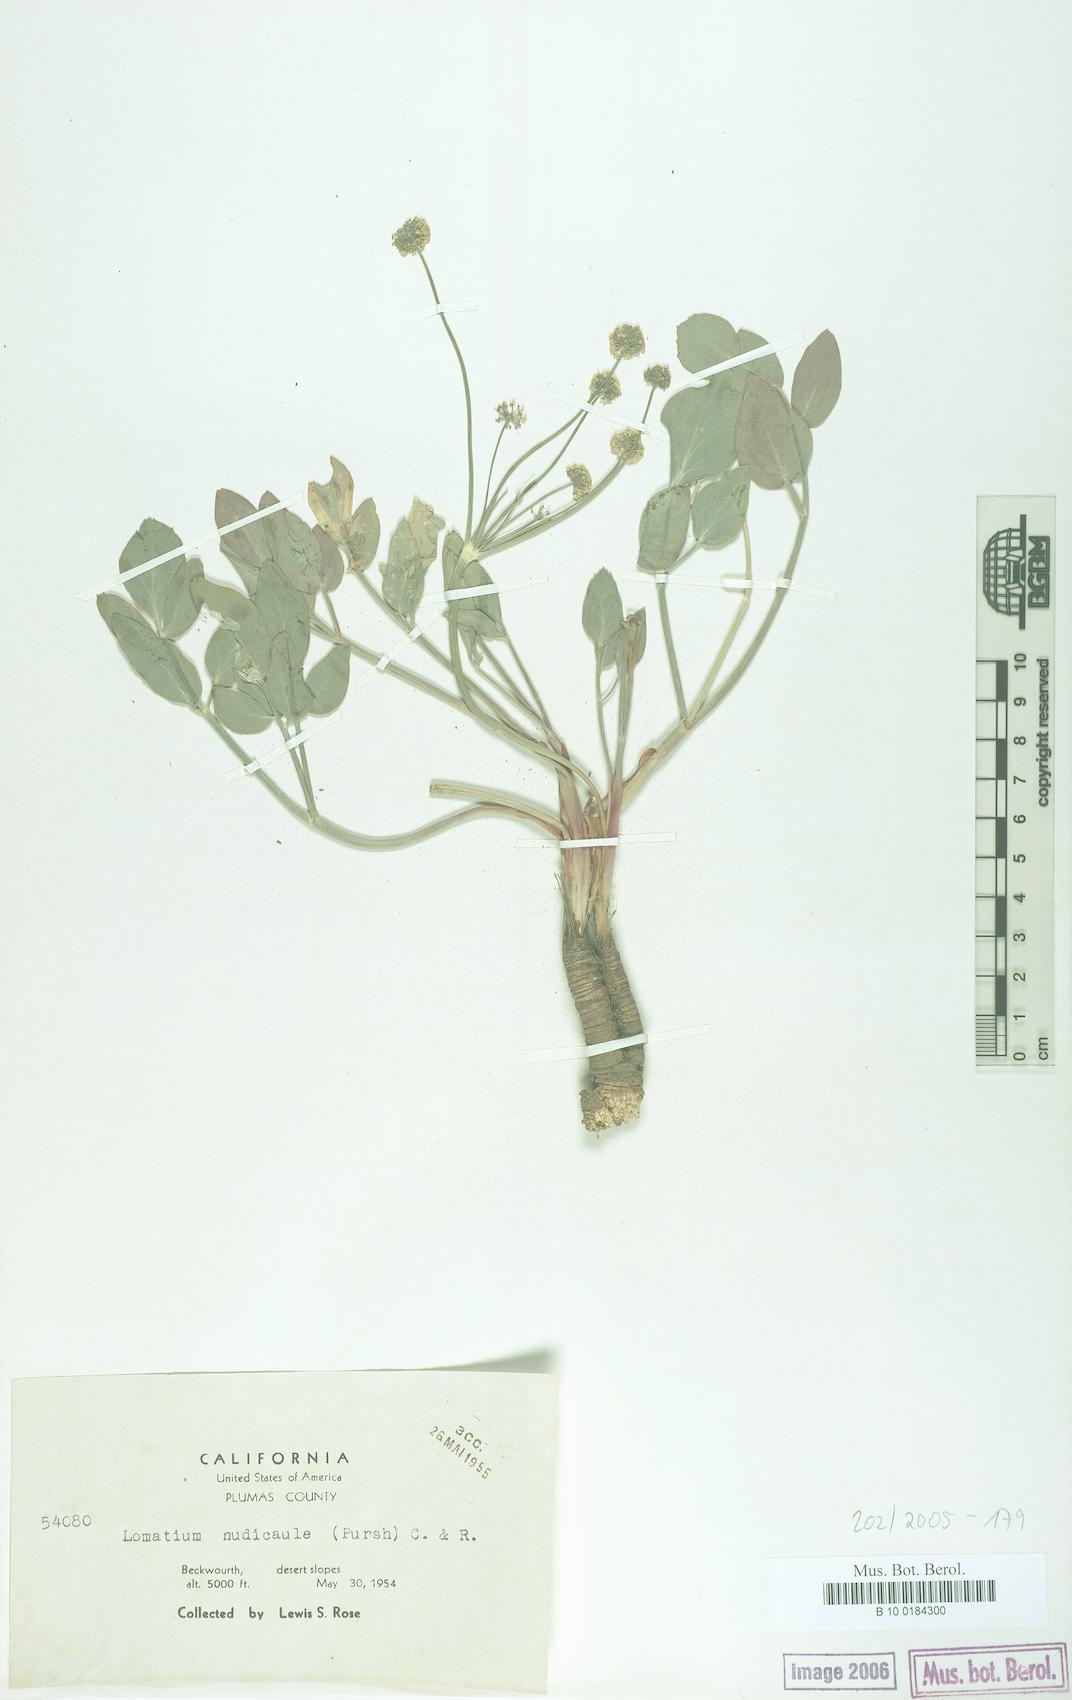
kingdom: Plantae
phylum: Tracheophyta
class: Magnoliopsida
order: Apiales
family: Apiaceae
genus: Lomatium
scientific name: Lomatium nudicaule
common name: Pestle lomatium
